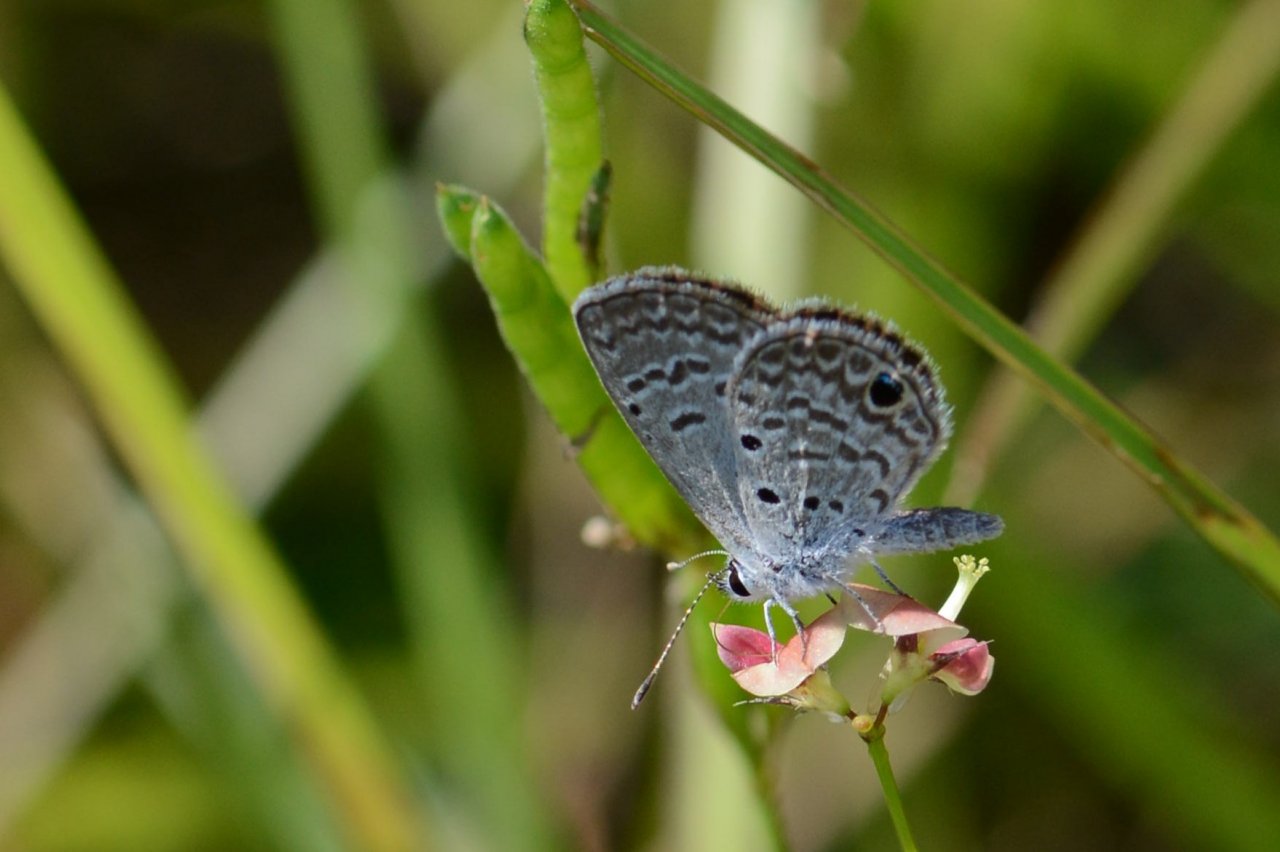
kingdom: Animalia
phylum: Arthropoda
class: Insecta
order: Lepidoptera
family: Lycaenidae
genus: Hemiargus
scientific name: Hemiargus ceraunus
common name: Ceraunus Blue
